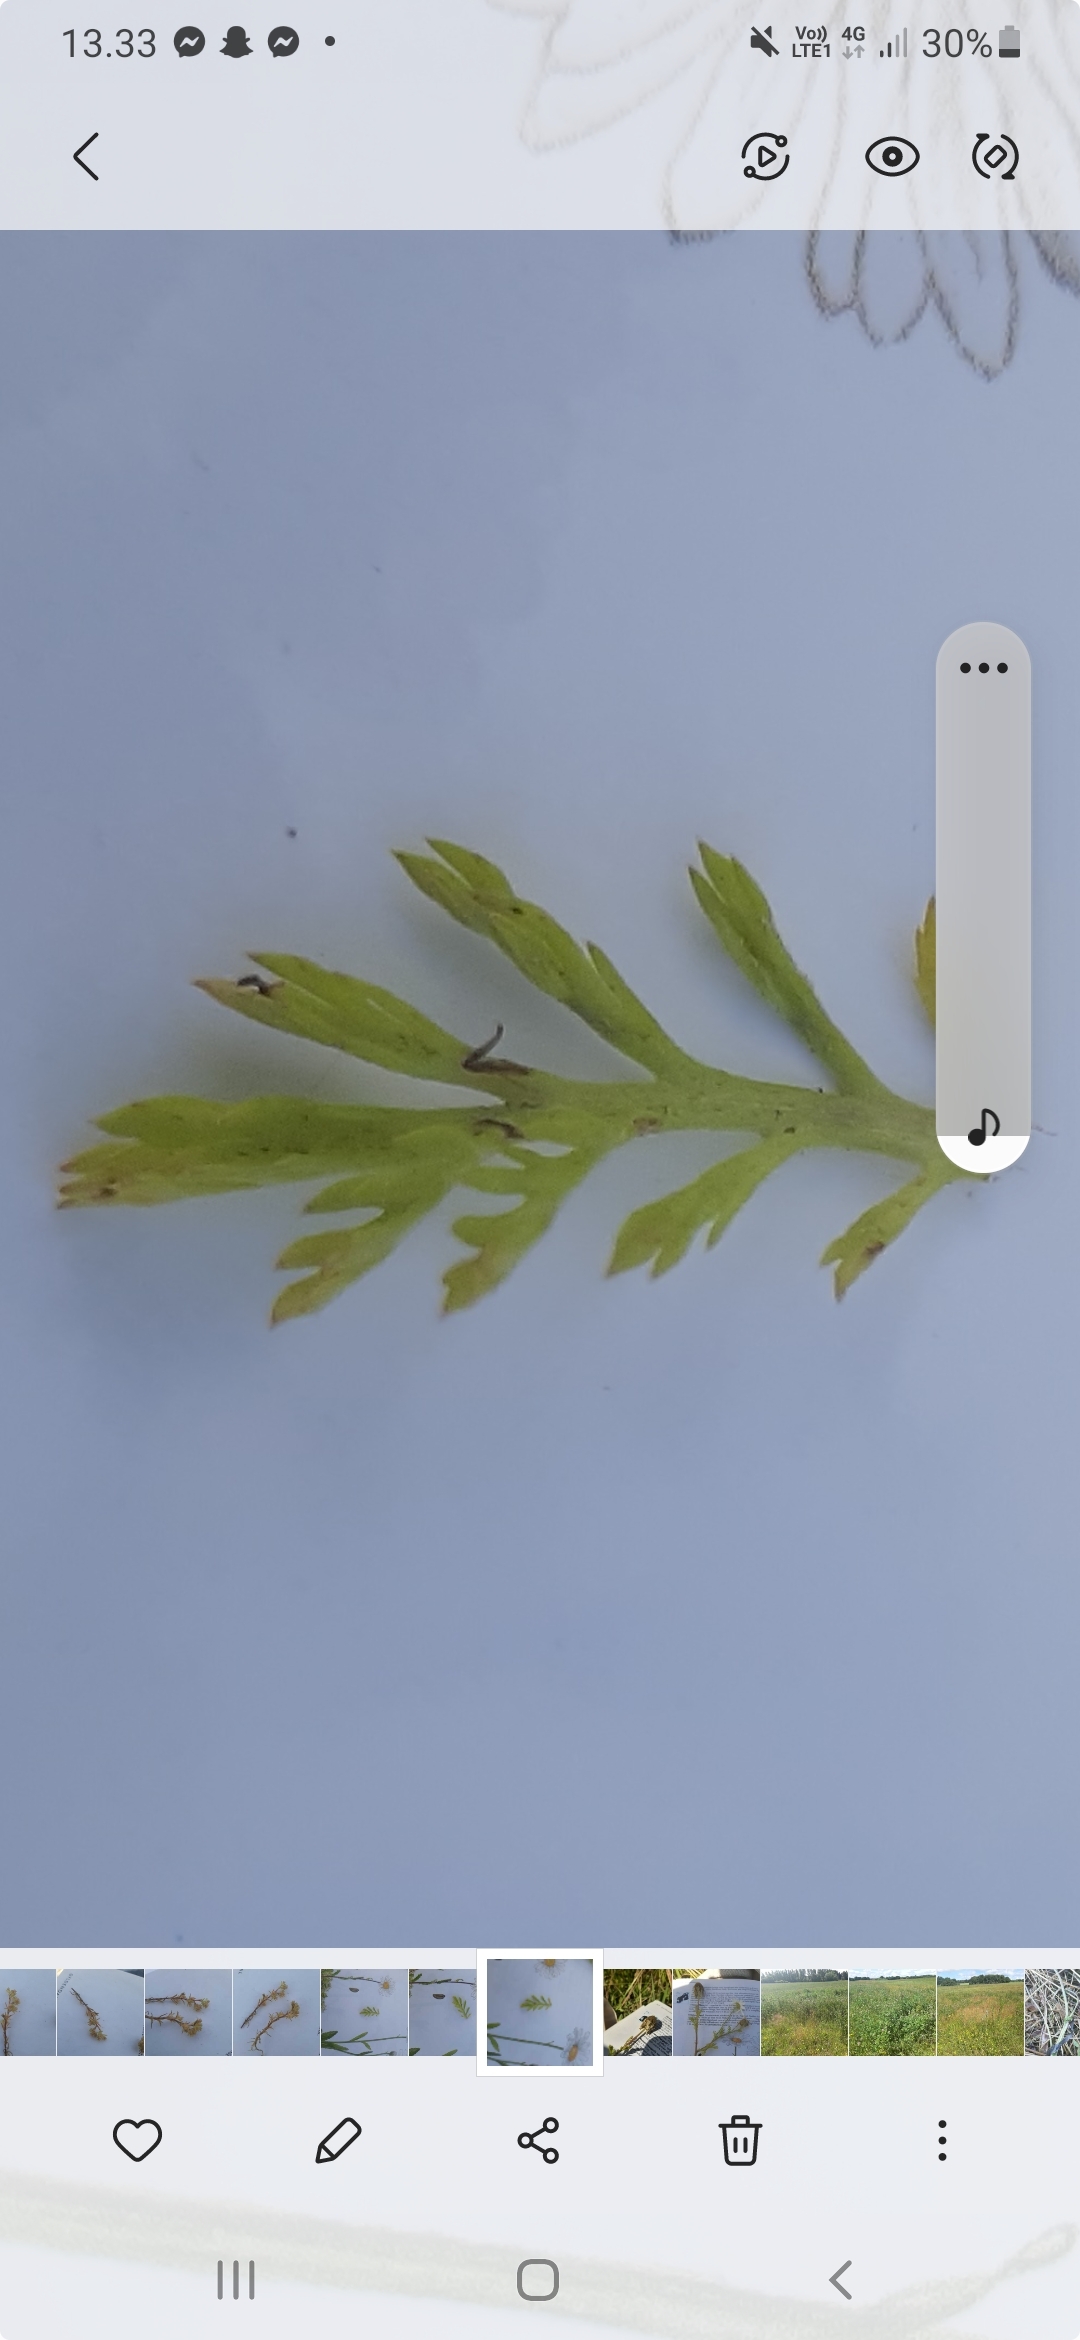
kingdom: Plantae
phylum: Tracheophyta
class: Magnoliopsida
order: Asterales
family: Asteraceae
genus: Anthemis
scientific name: Anthemis arvensis
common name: Ager-gåseurt
